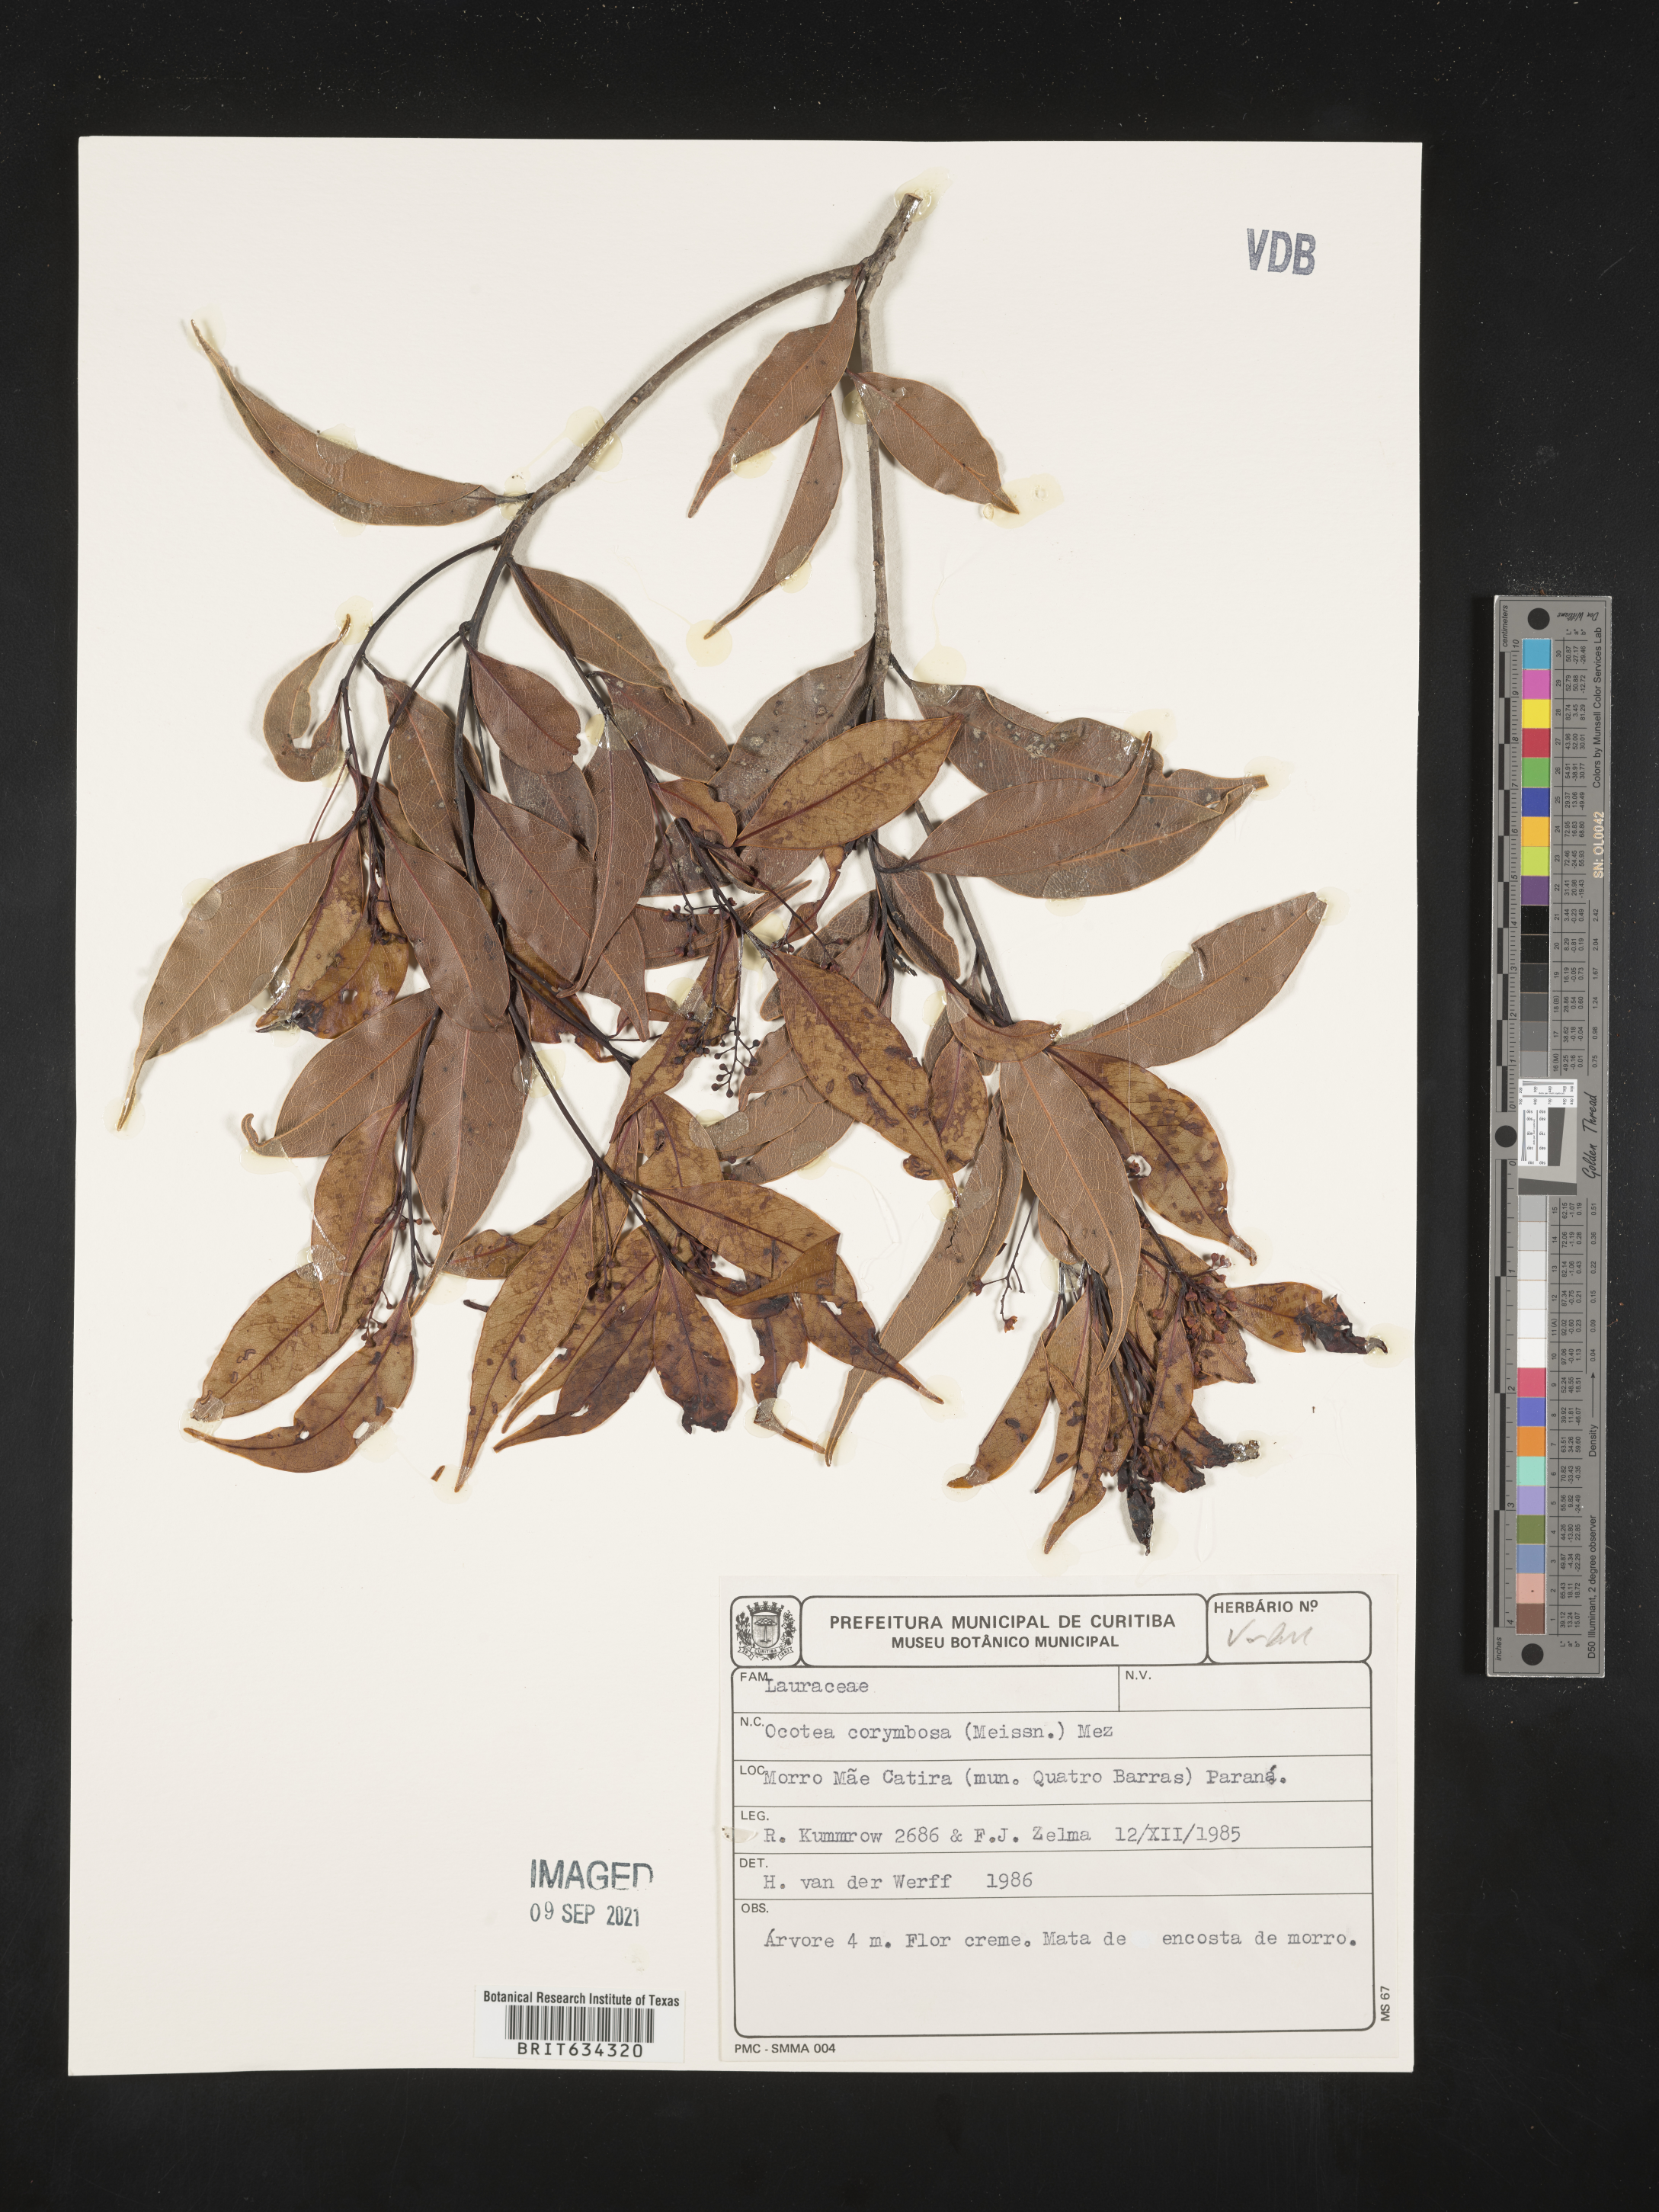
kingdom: Plantae
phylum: Tracheophyta
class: Magnoliopsida
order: Laurales
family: Lauraceae
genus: Ocotea
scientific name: Ocotea
